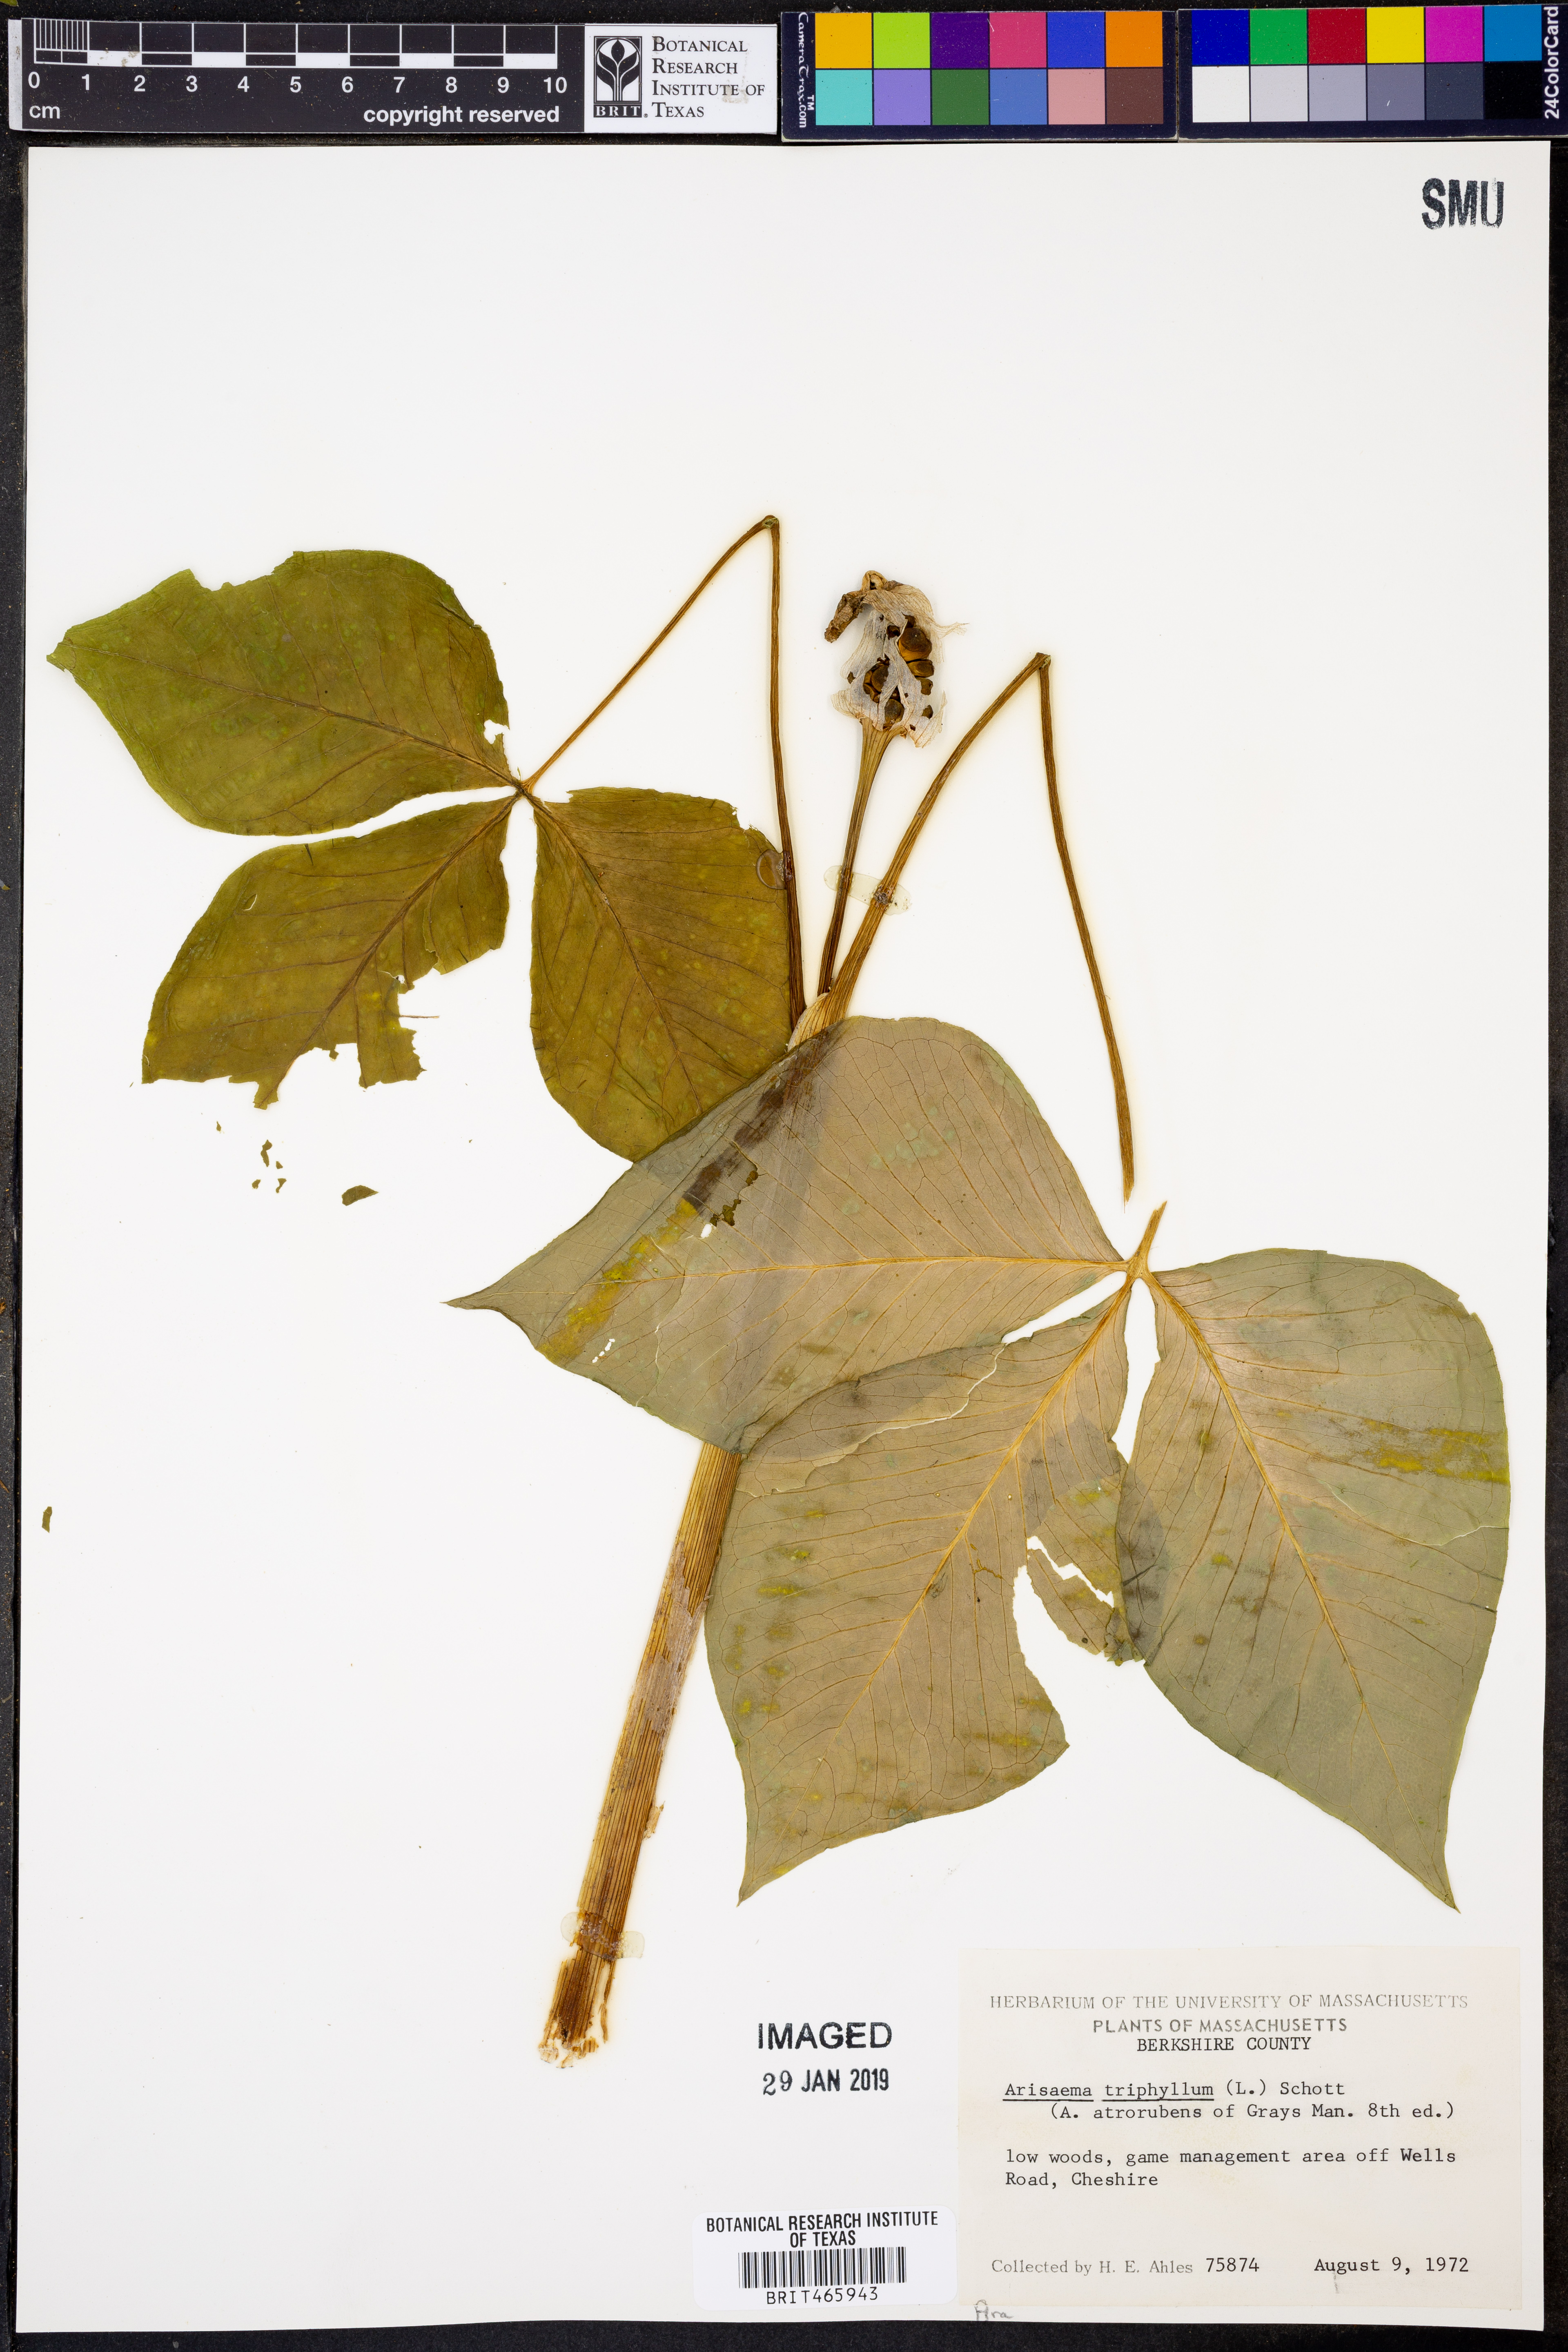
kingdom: Plantae
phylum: Tracheophyta
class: Liliopsida
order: Alismatales
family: Araceae
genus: Arisaema
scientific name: Arisaema triphyllum
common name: Jack-in-the-pulpit
